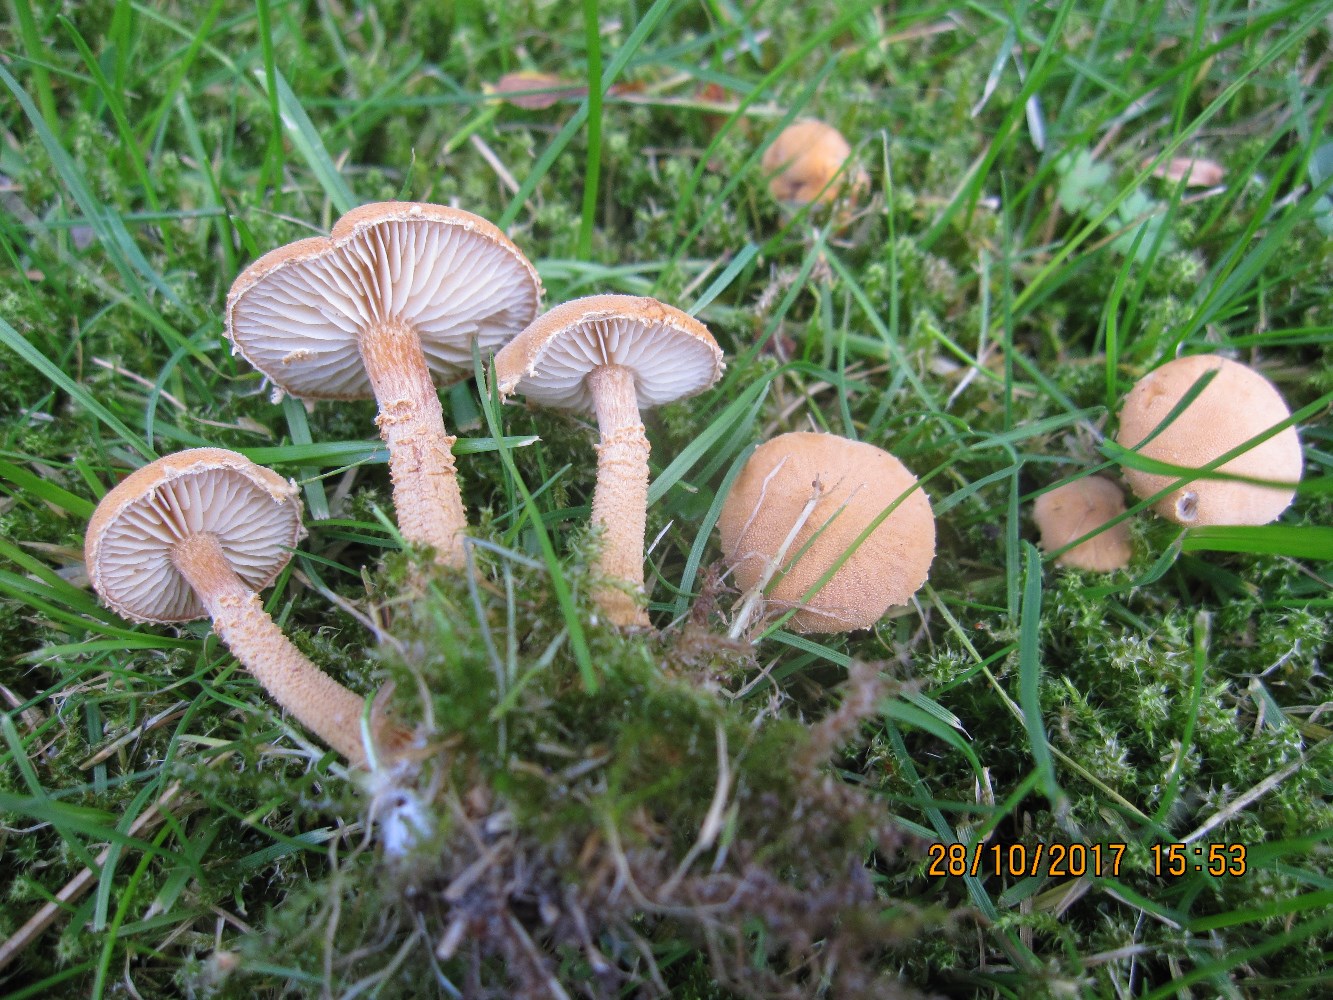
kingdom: Fungi
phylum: Basidiomycota
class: Agaricomycetes
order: Agaricales
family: Tricholomataceae
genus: Cystoderma
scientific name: Cystoderma amianthinum
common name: okkergul grynhat
